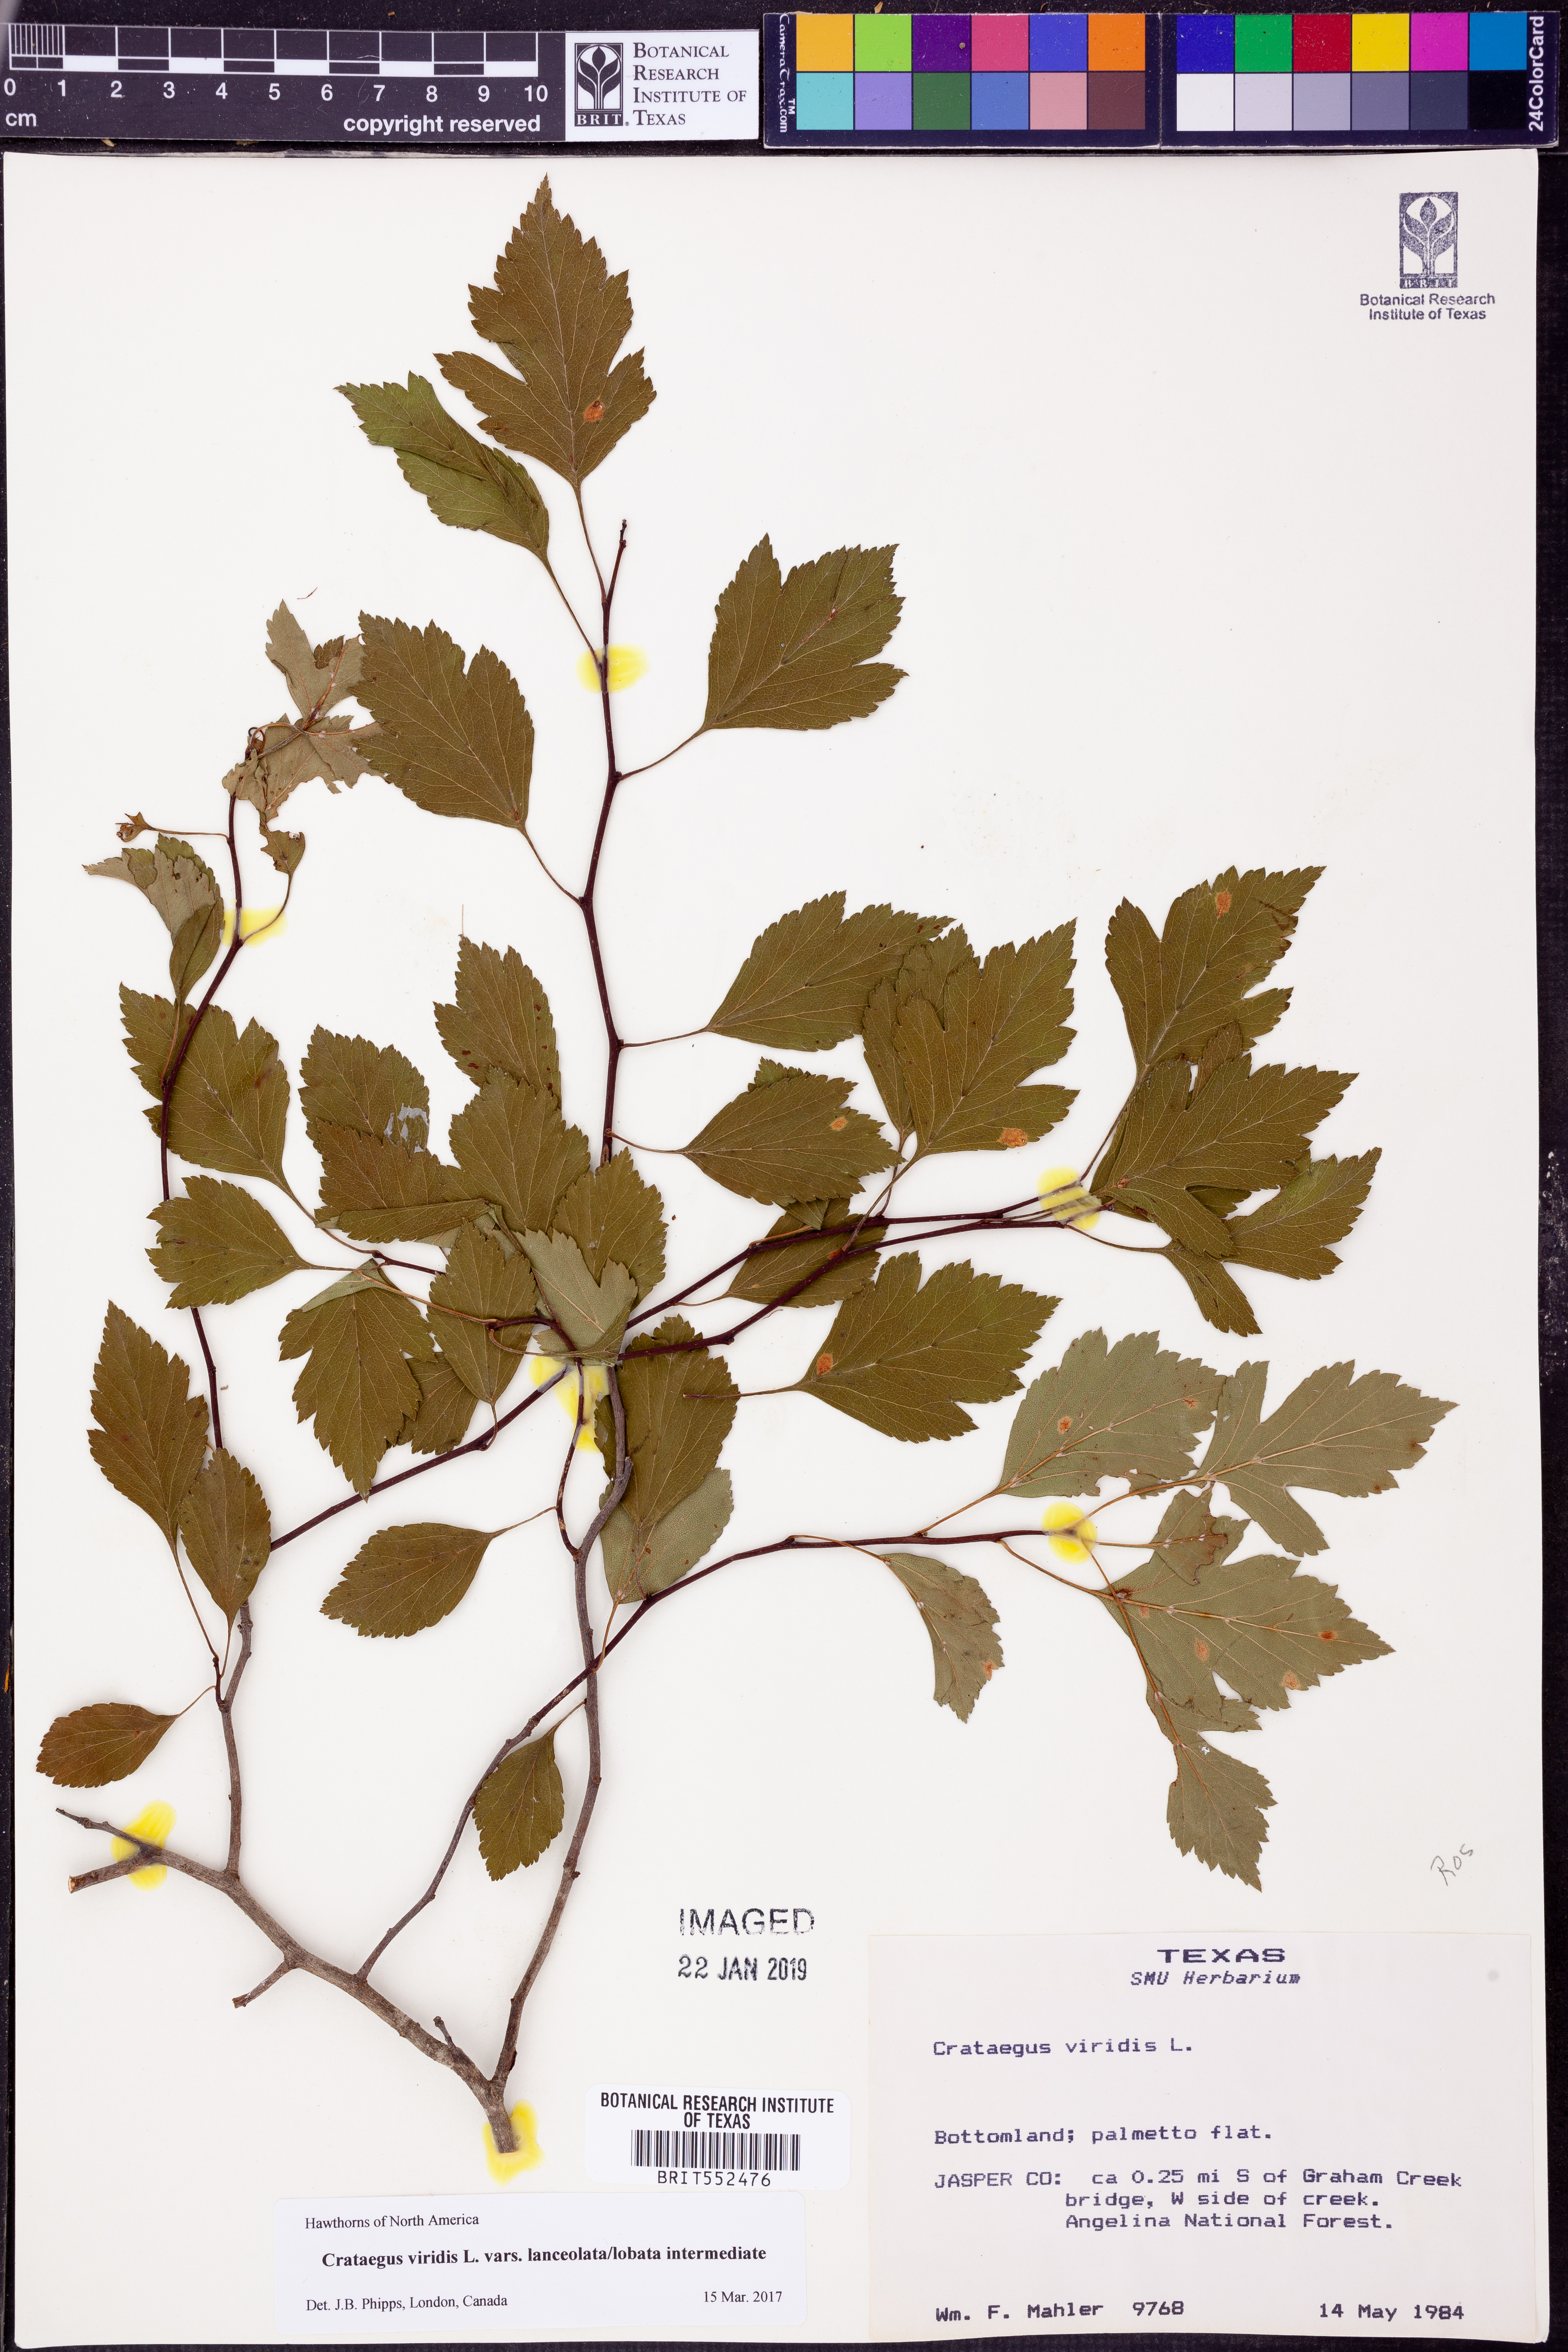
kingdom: Plantae
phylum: Tracheophyta
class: Magnoliopsida
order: Rosales
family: Rosaceae
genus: Crataegus
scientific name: Crataegus viridis
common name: Southernthorn
